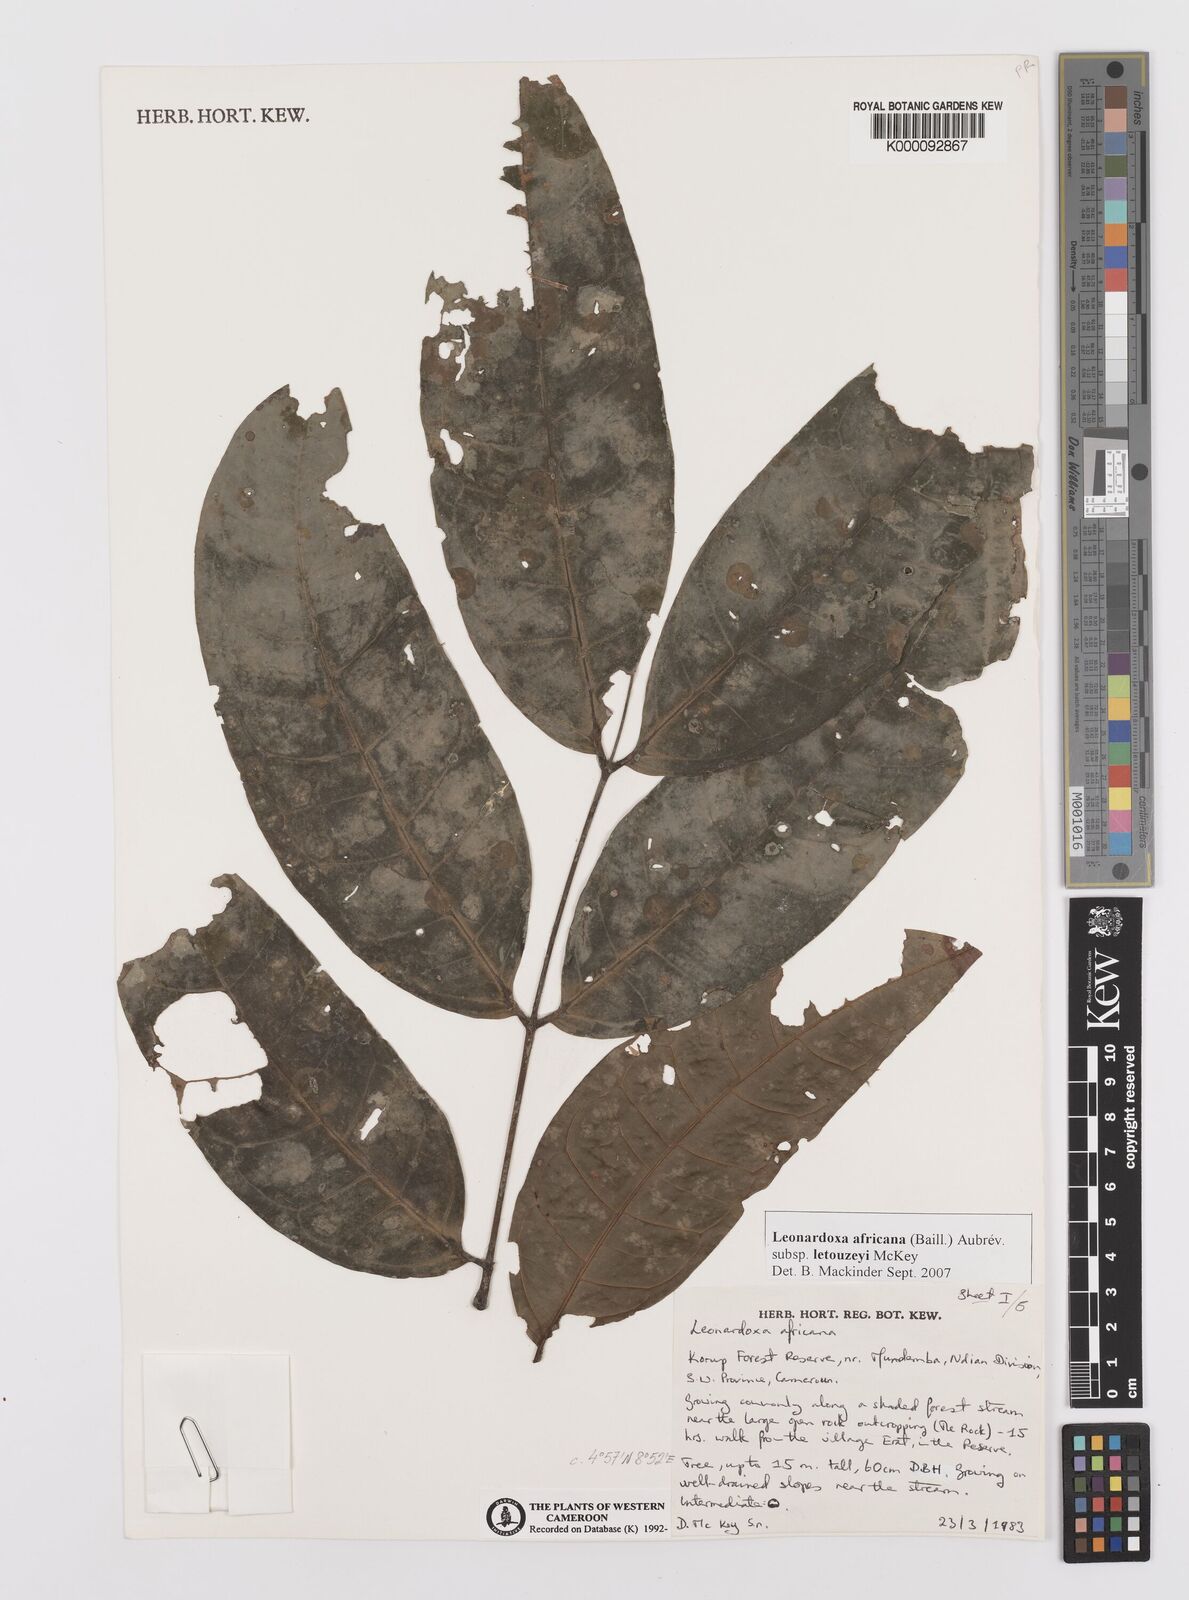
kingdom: Plantae
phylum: Tracheophyta
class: Magnoliopsida
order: Fabales
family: Fabaceae
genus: Leonardoxa
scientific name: Leonardoxa
